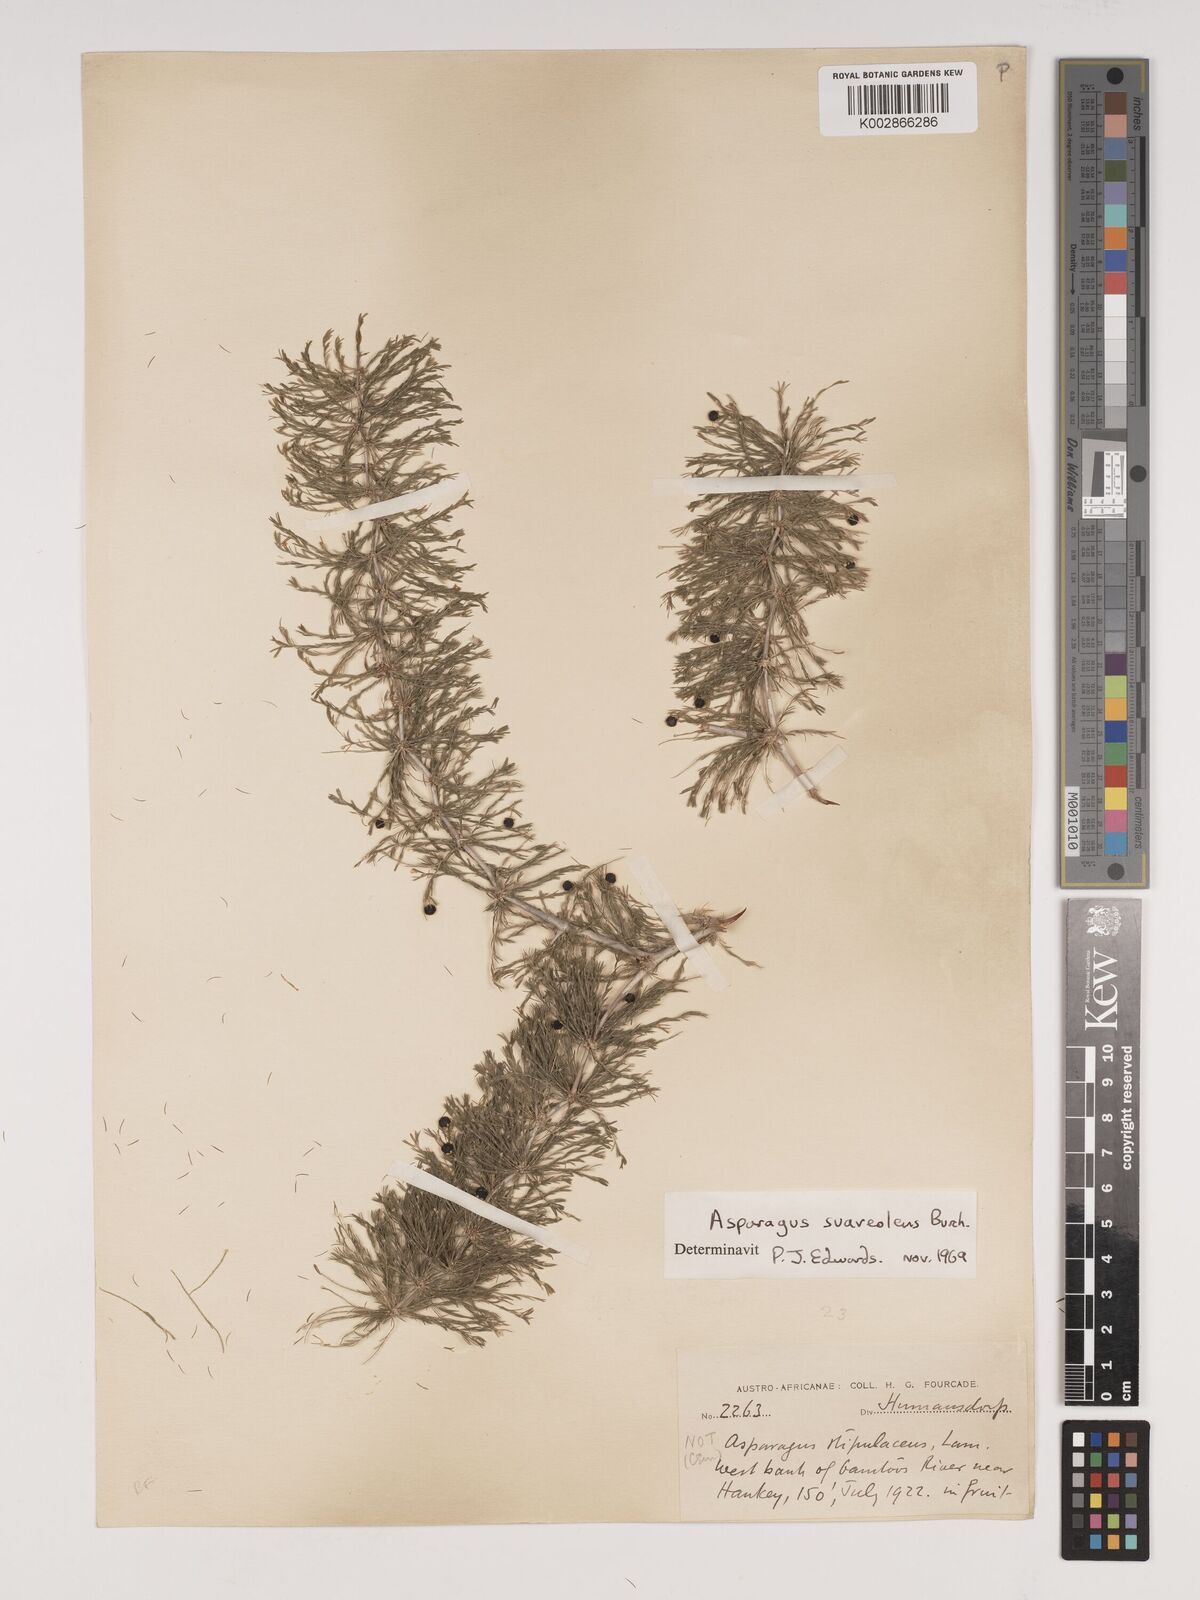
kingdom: Plantae
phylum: Tracheophyta
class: Liliopsida
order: Asparagales
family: Asparagaceae
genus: Asparagus
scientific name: Asparagus suaveolens
